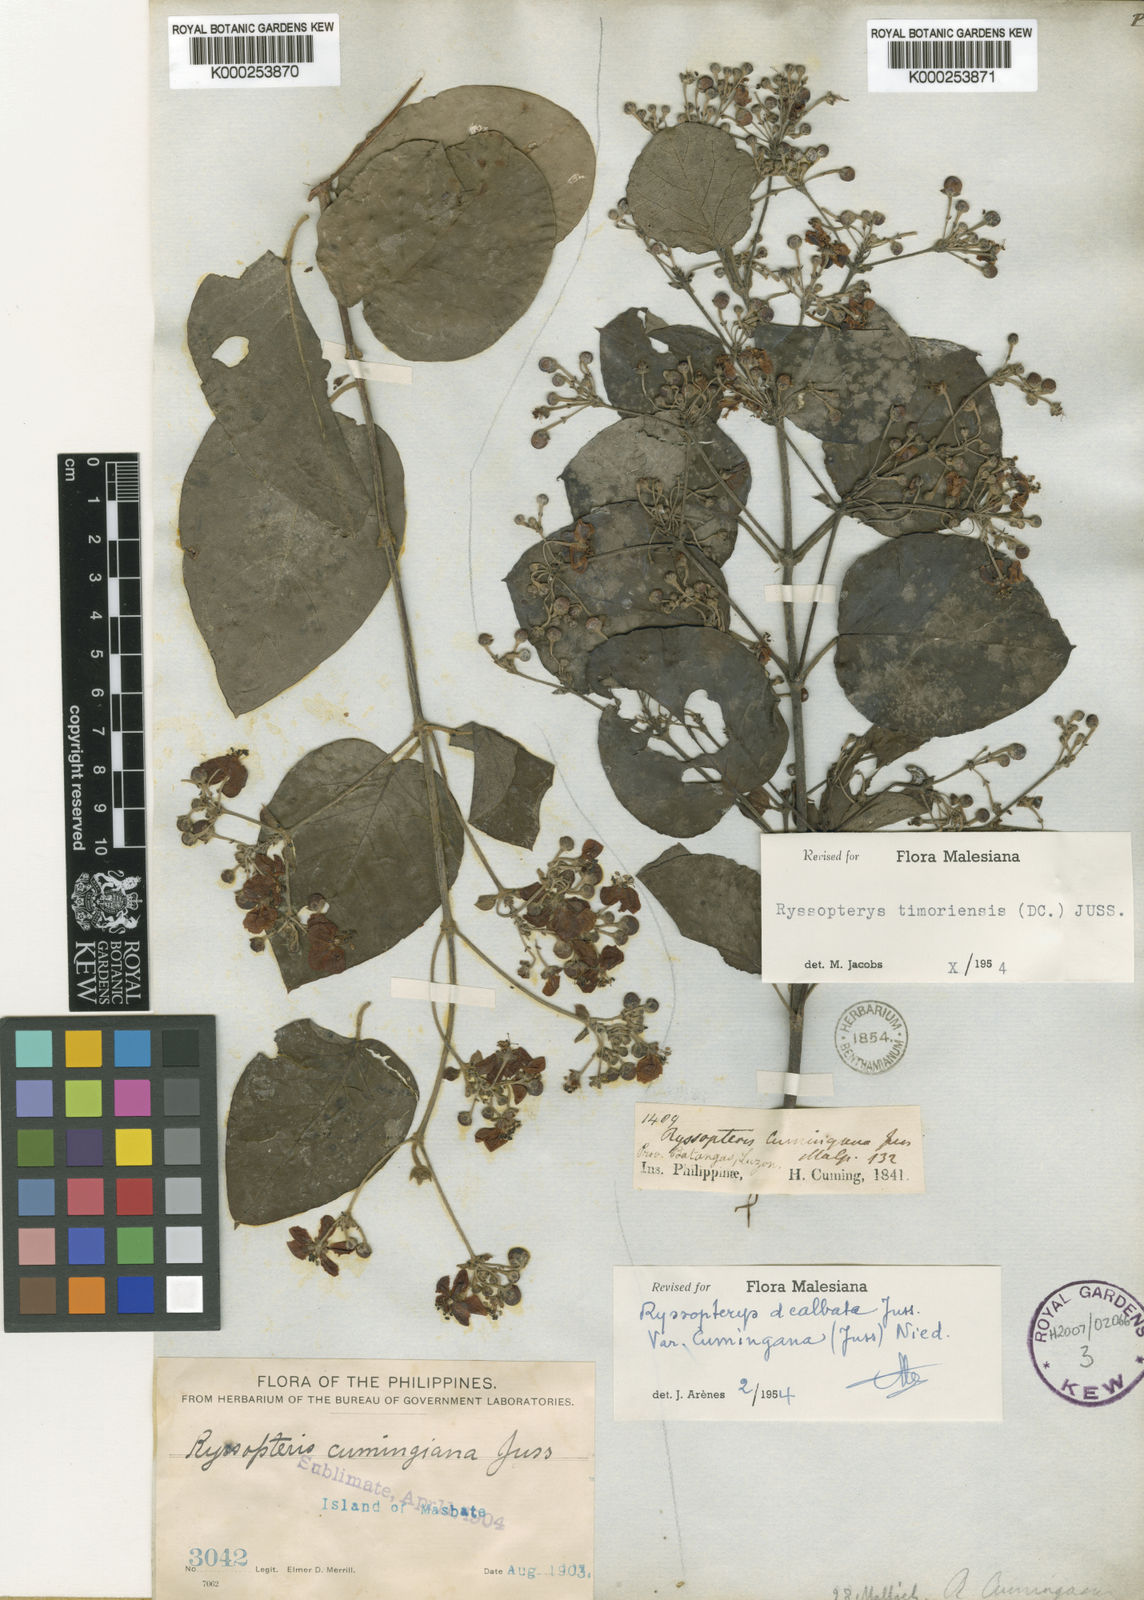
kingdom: Plantae
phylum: Tracheophyta
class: Magnoliopsida
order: Malpighiales
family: Malpighiaceae
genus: Stigmaphyllon
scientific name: Stigmaphyllon dealbatum
